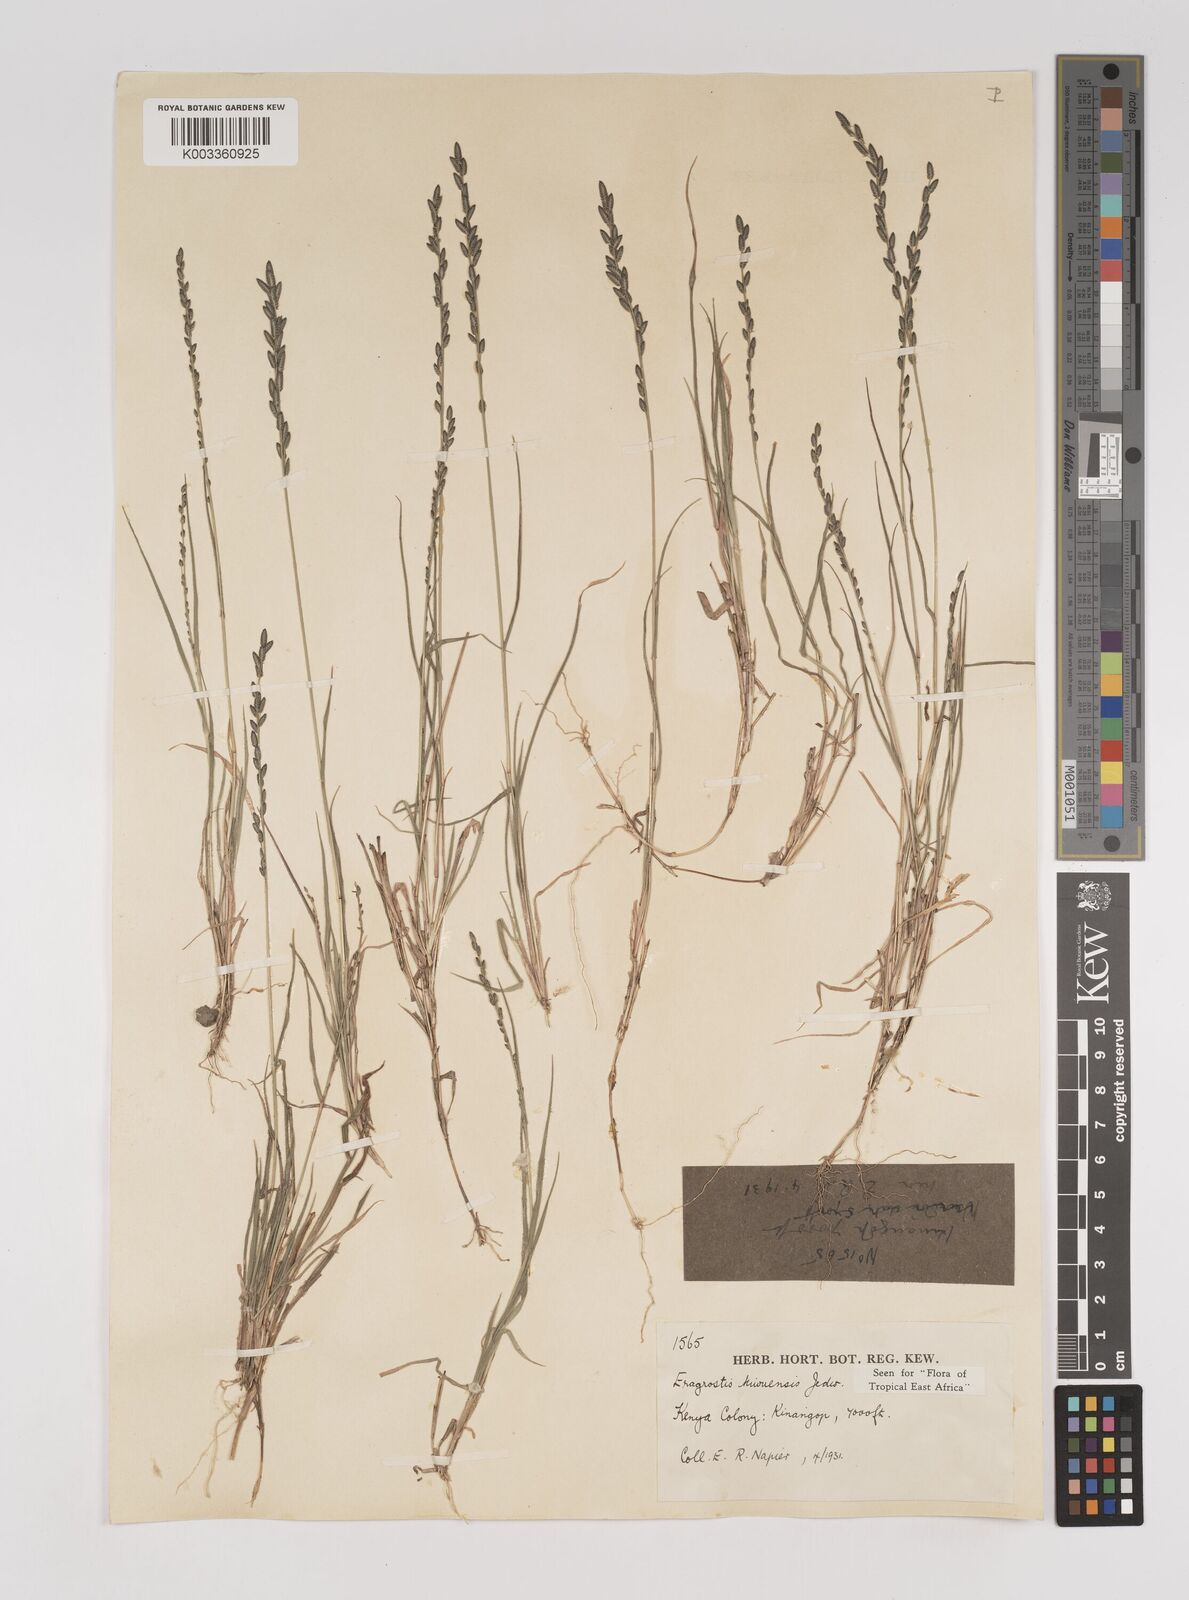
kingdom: Plantae
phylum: Tracheophyta
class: Liliopsida
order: Poales
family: Poaceae
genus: Eragrostis
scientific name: Eragrostis schweinfurthii
